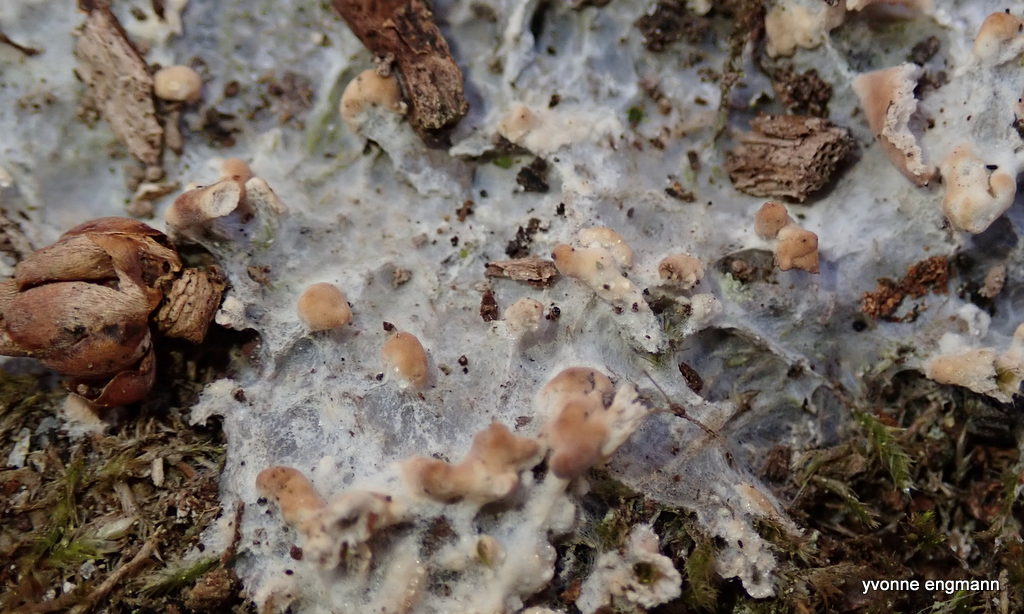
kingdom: Fungi
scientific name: Fungi
